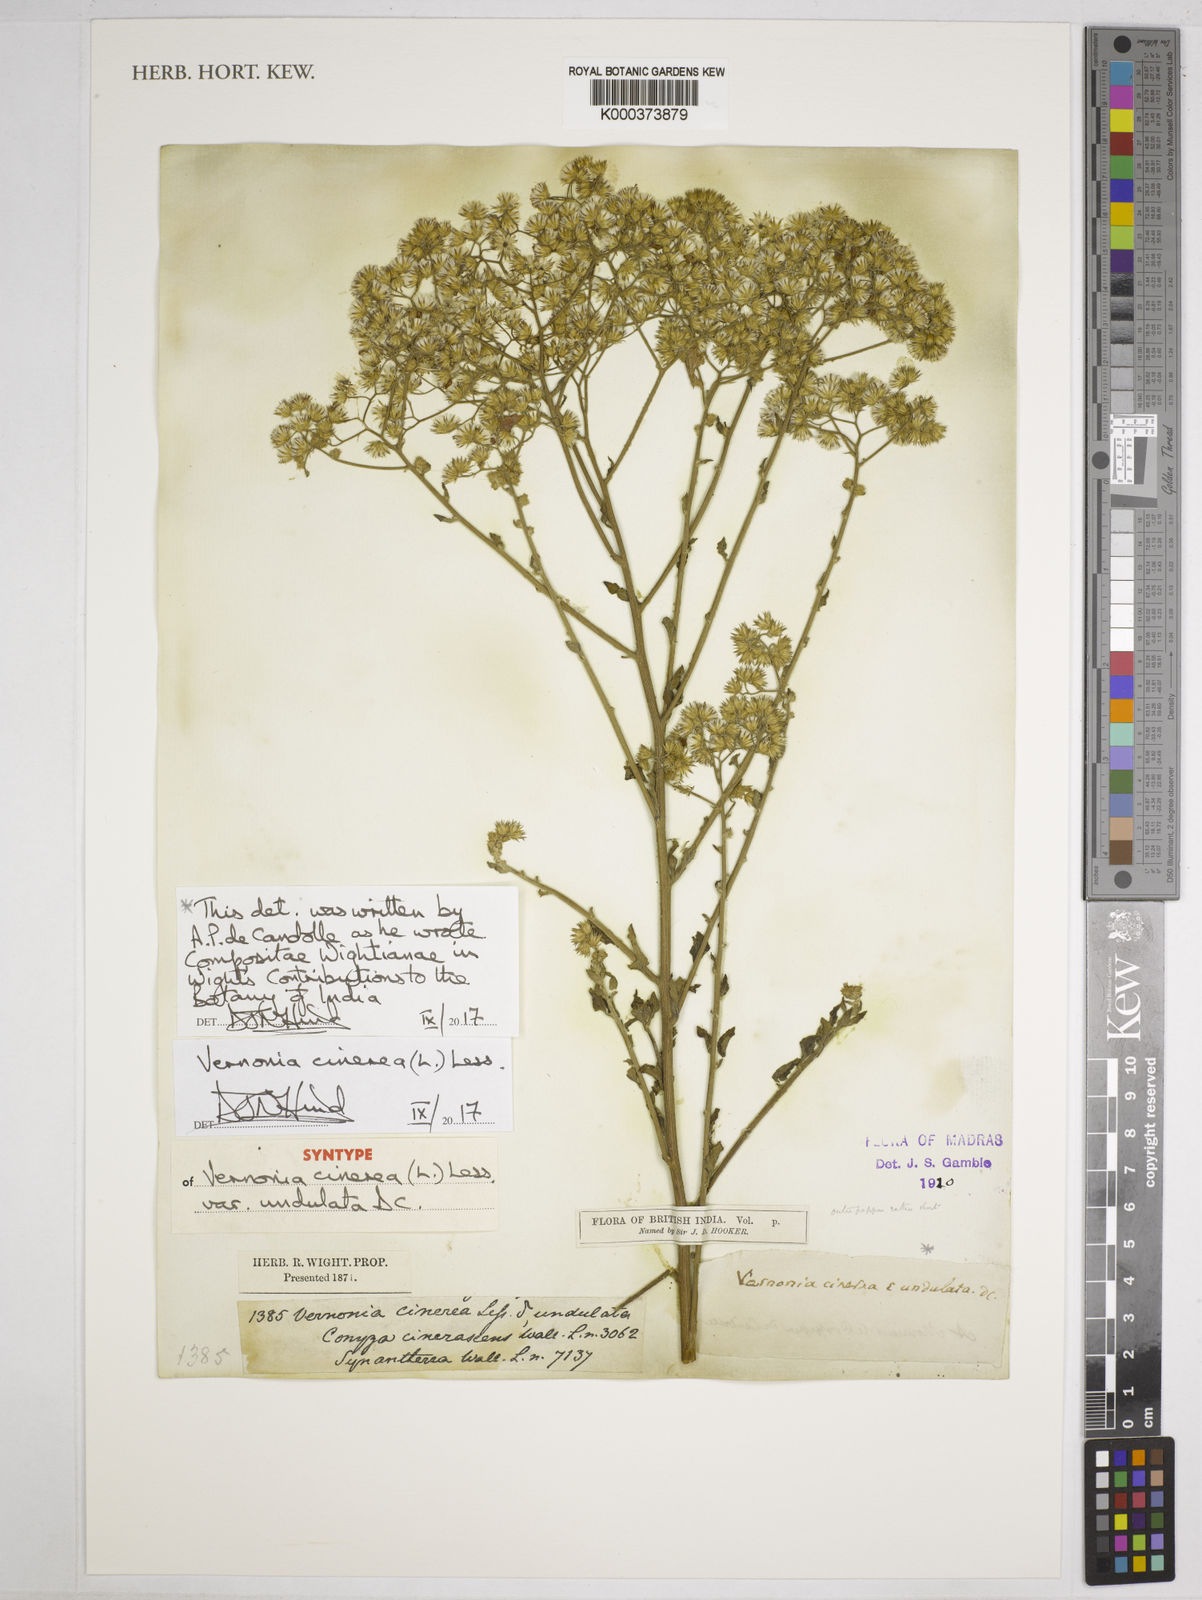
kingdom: Plantae
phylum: Tracheophyta
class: Magnoliopsida
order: Asterales
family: Asteraceae
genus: Cyanthillium
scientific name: Cyanthillium cinereum
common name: Little ironweed
